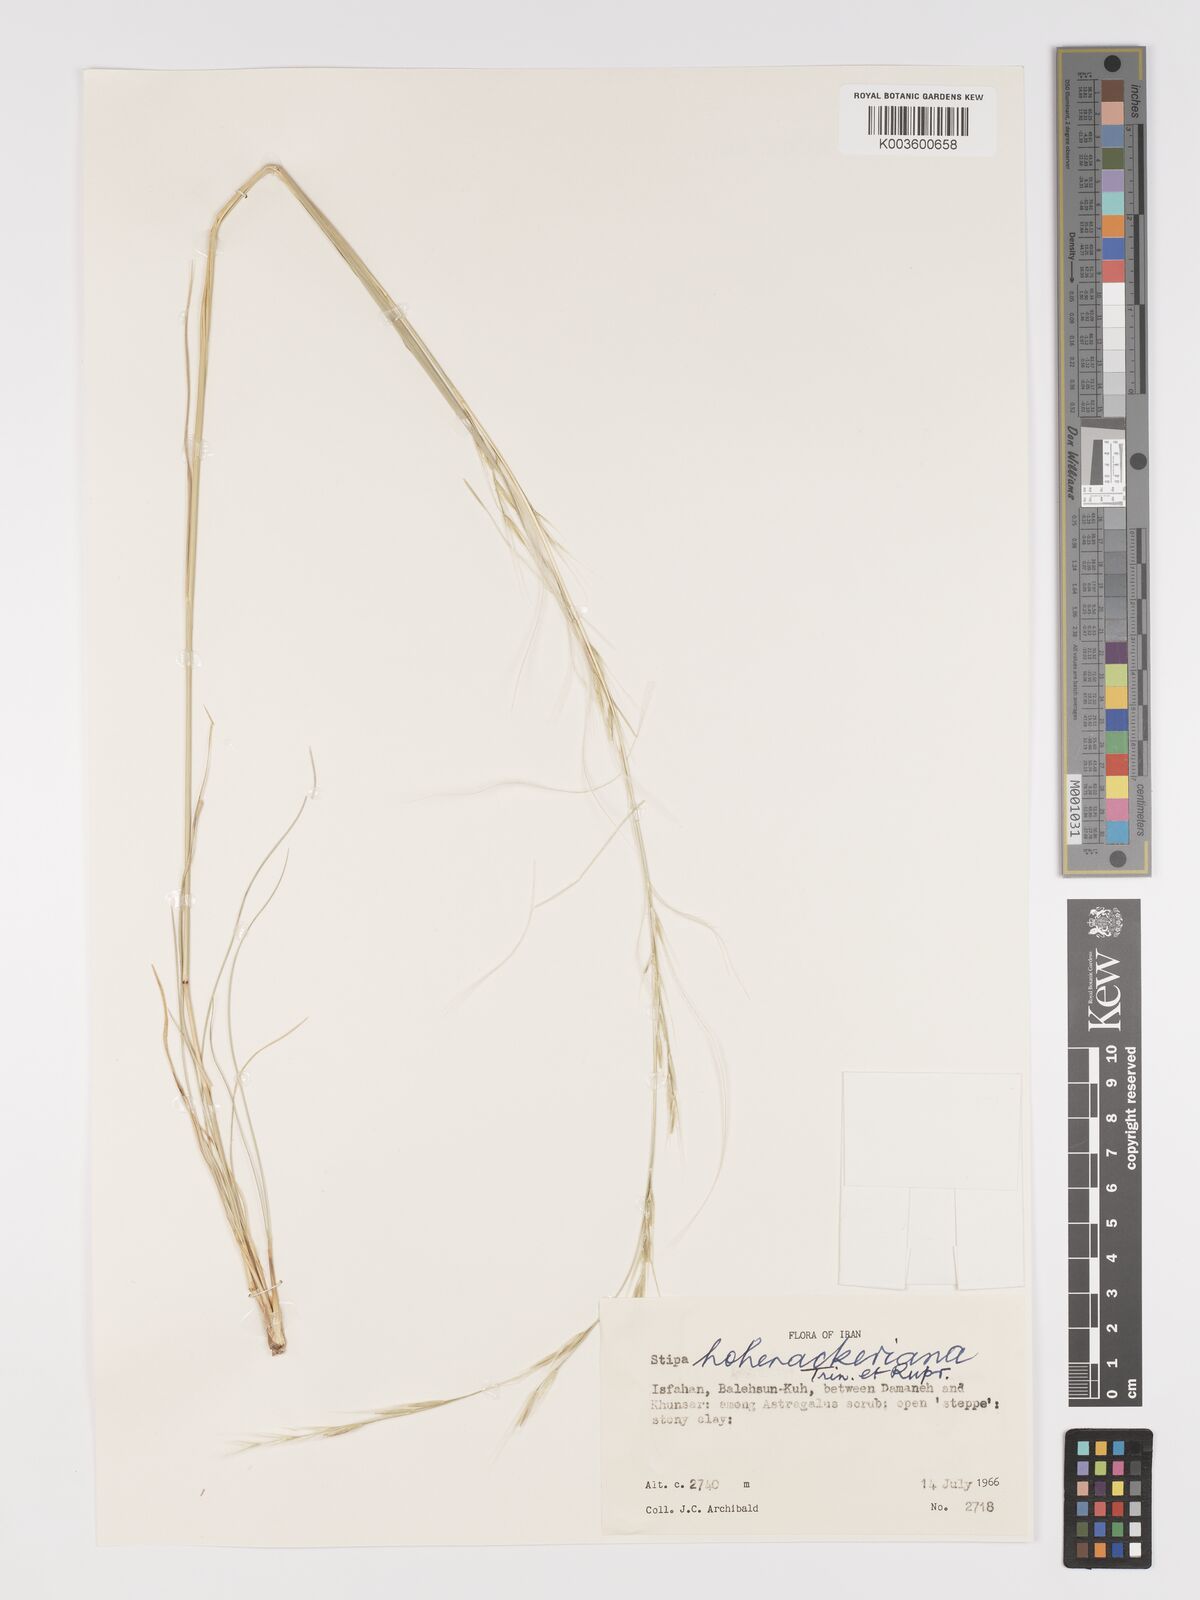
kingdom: Plantae
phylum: Tracheophyta
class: Liliopsida
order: Poales
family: Poaceae
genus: Stipa
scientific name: Stipa hohenackeriana
